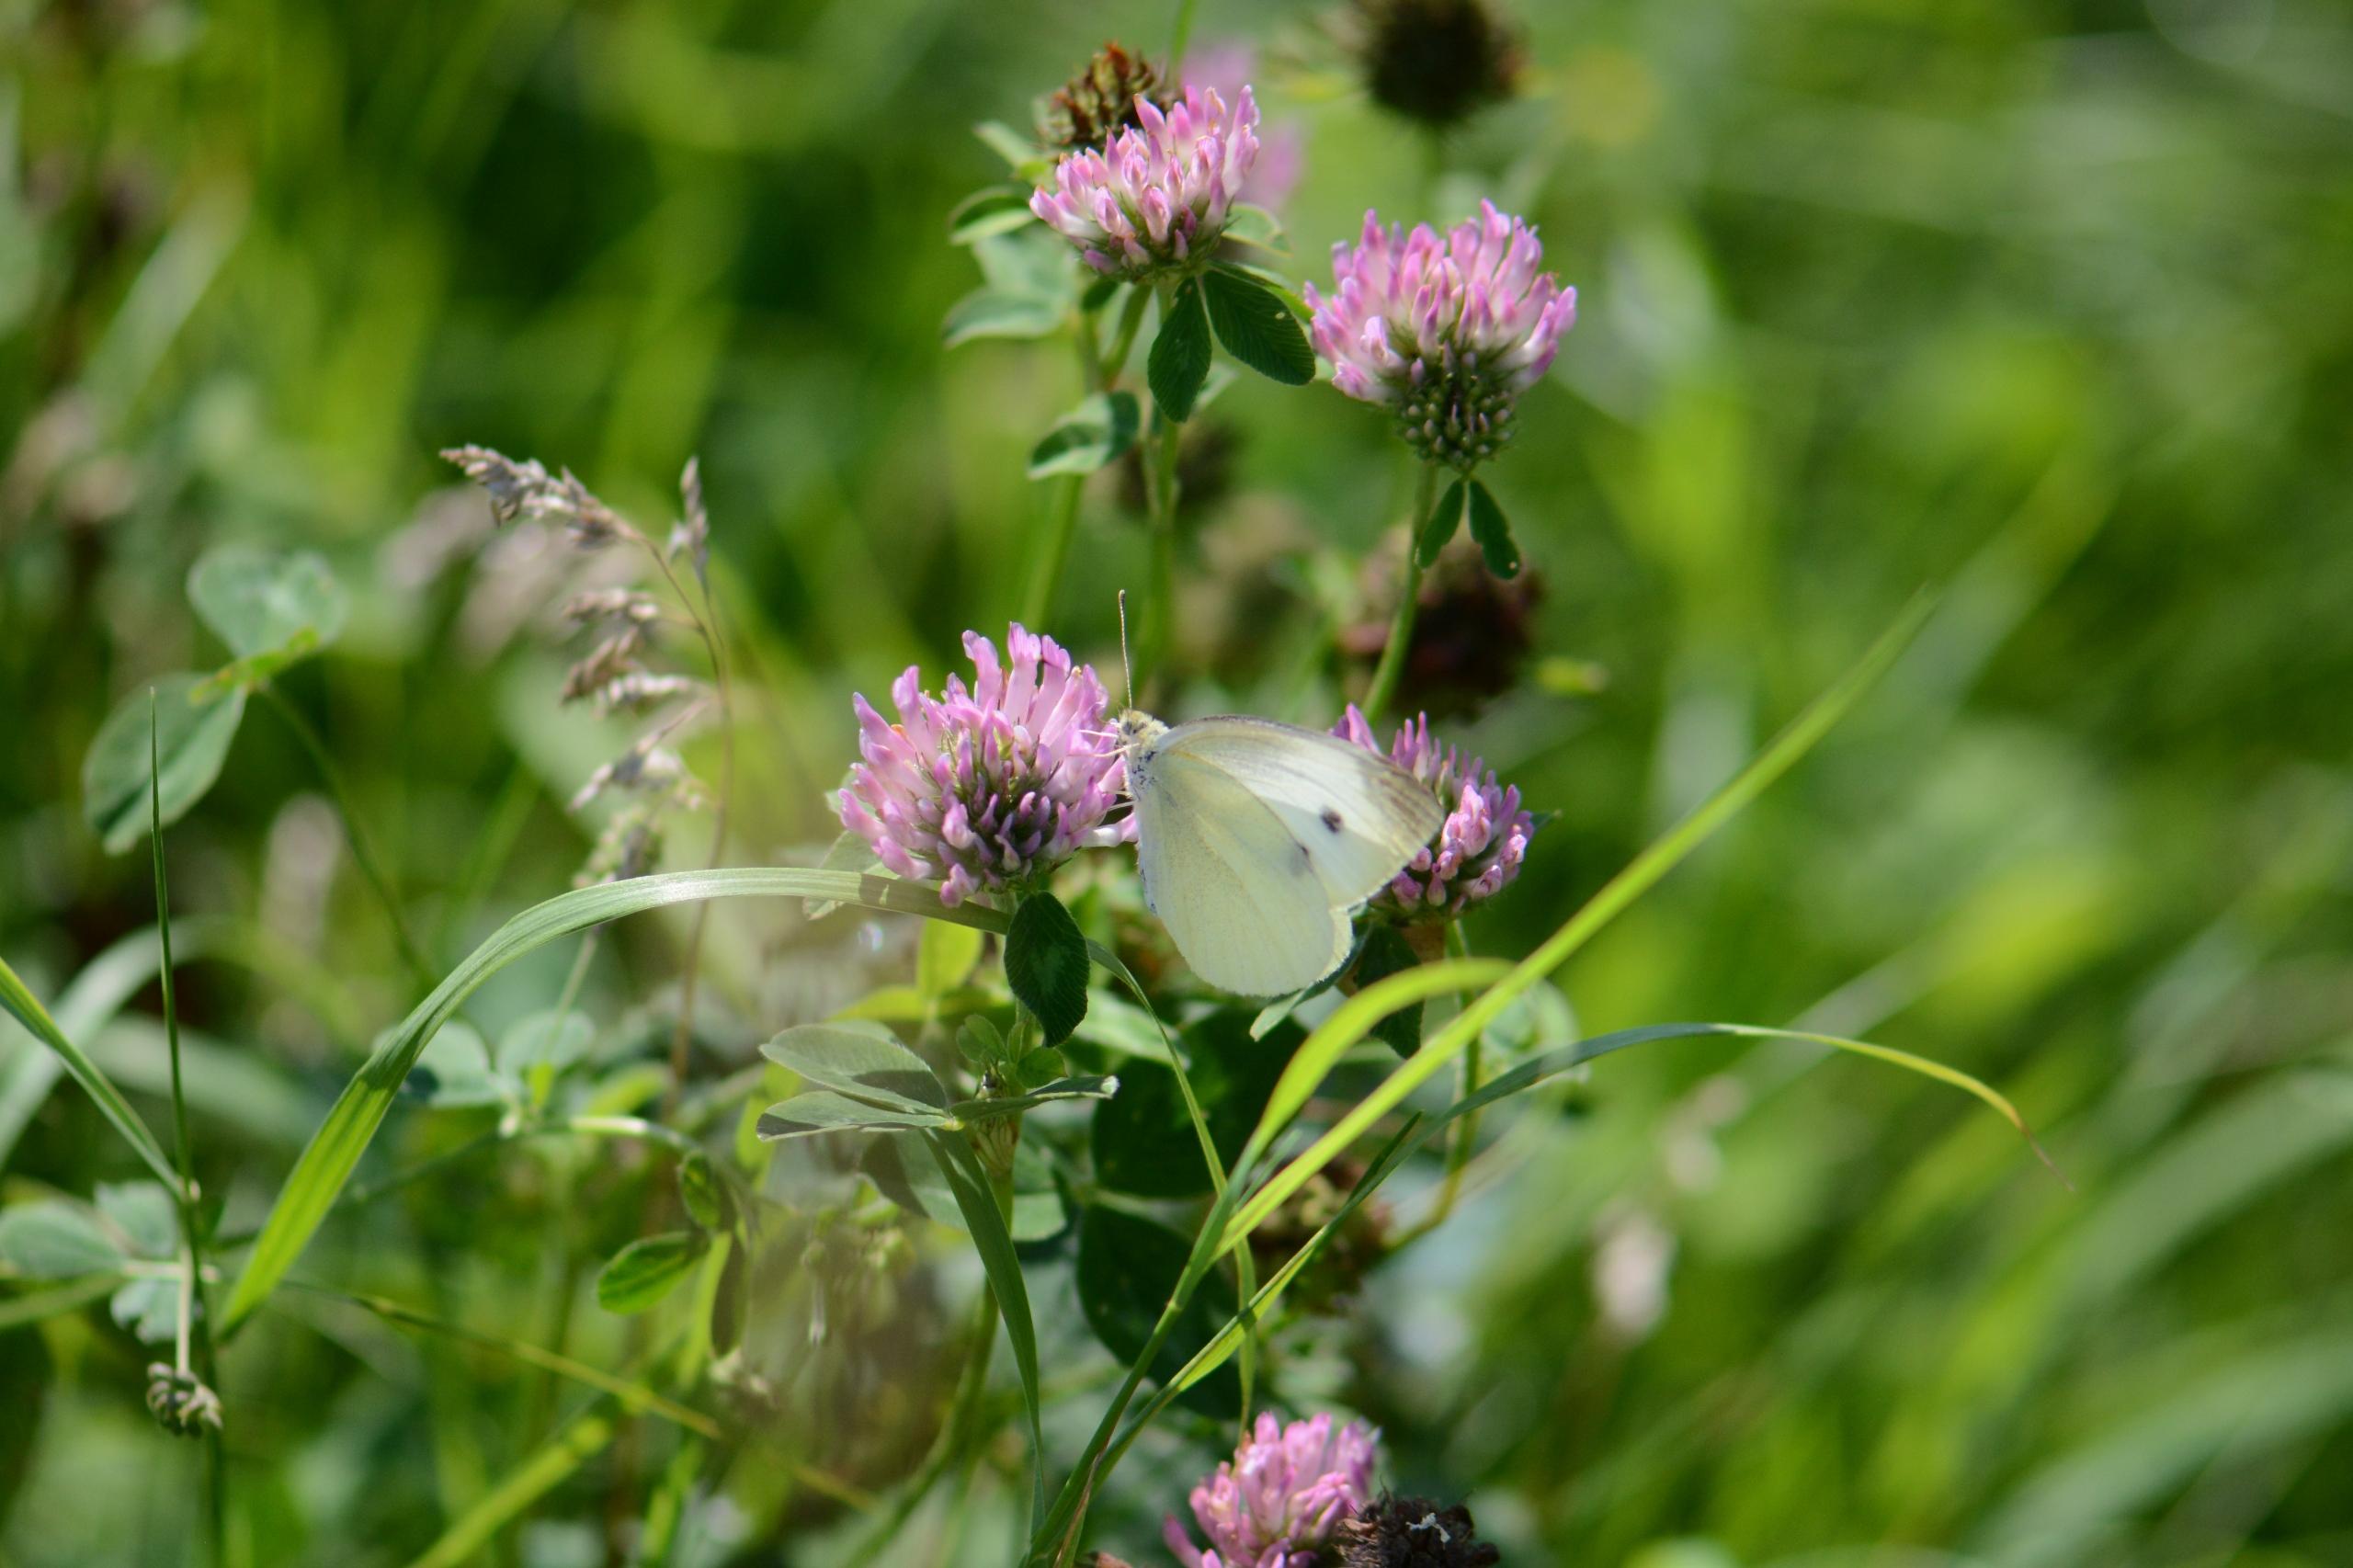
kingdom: Animalia
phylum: Arthropoda
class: Insecta
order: Lepidoptera
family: Pieridae
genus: Pieris
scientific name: Pieris rapae
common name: Lille kålsommerfugl
